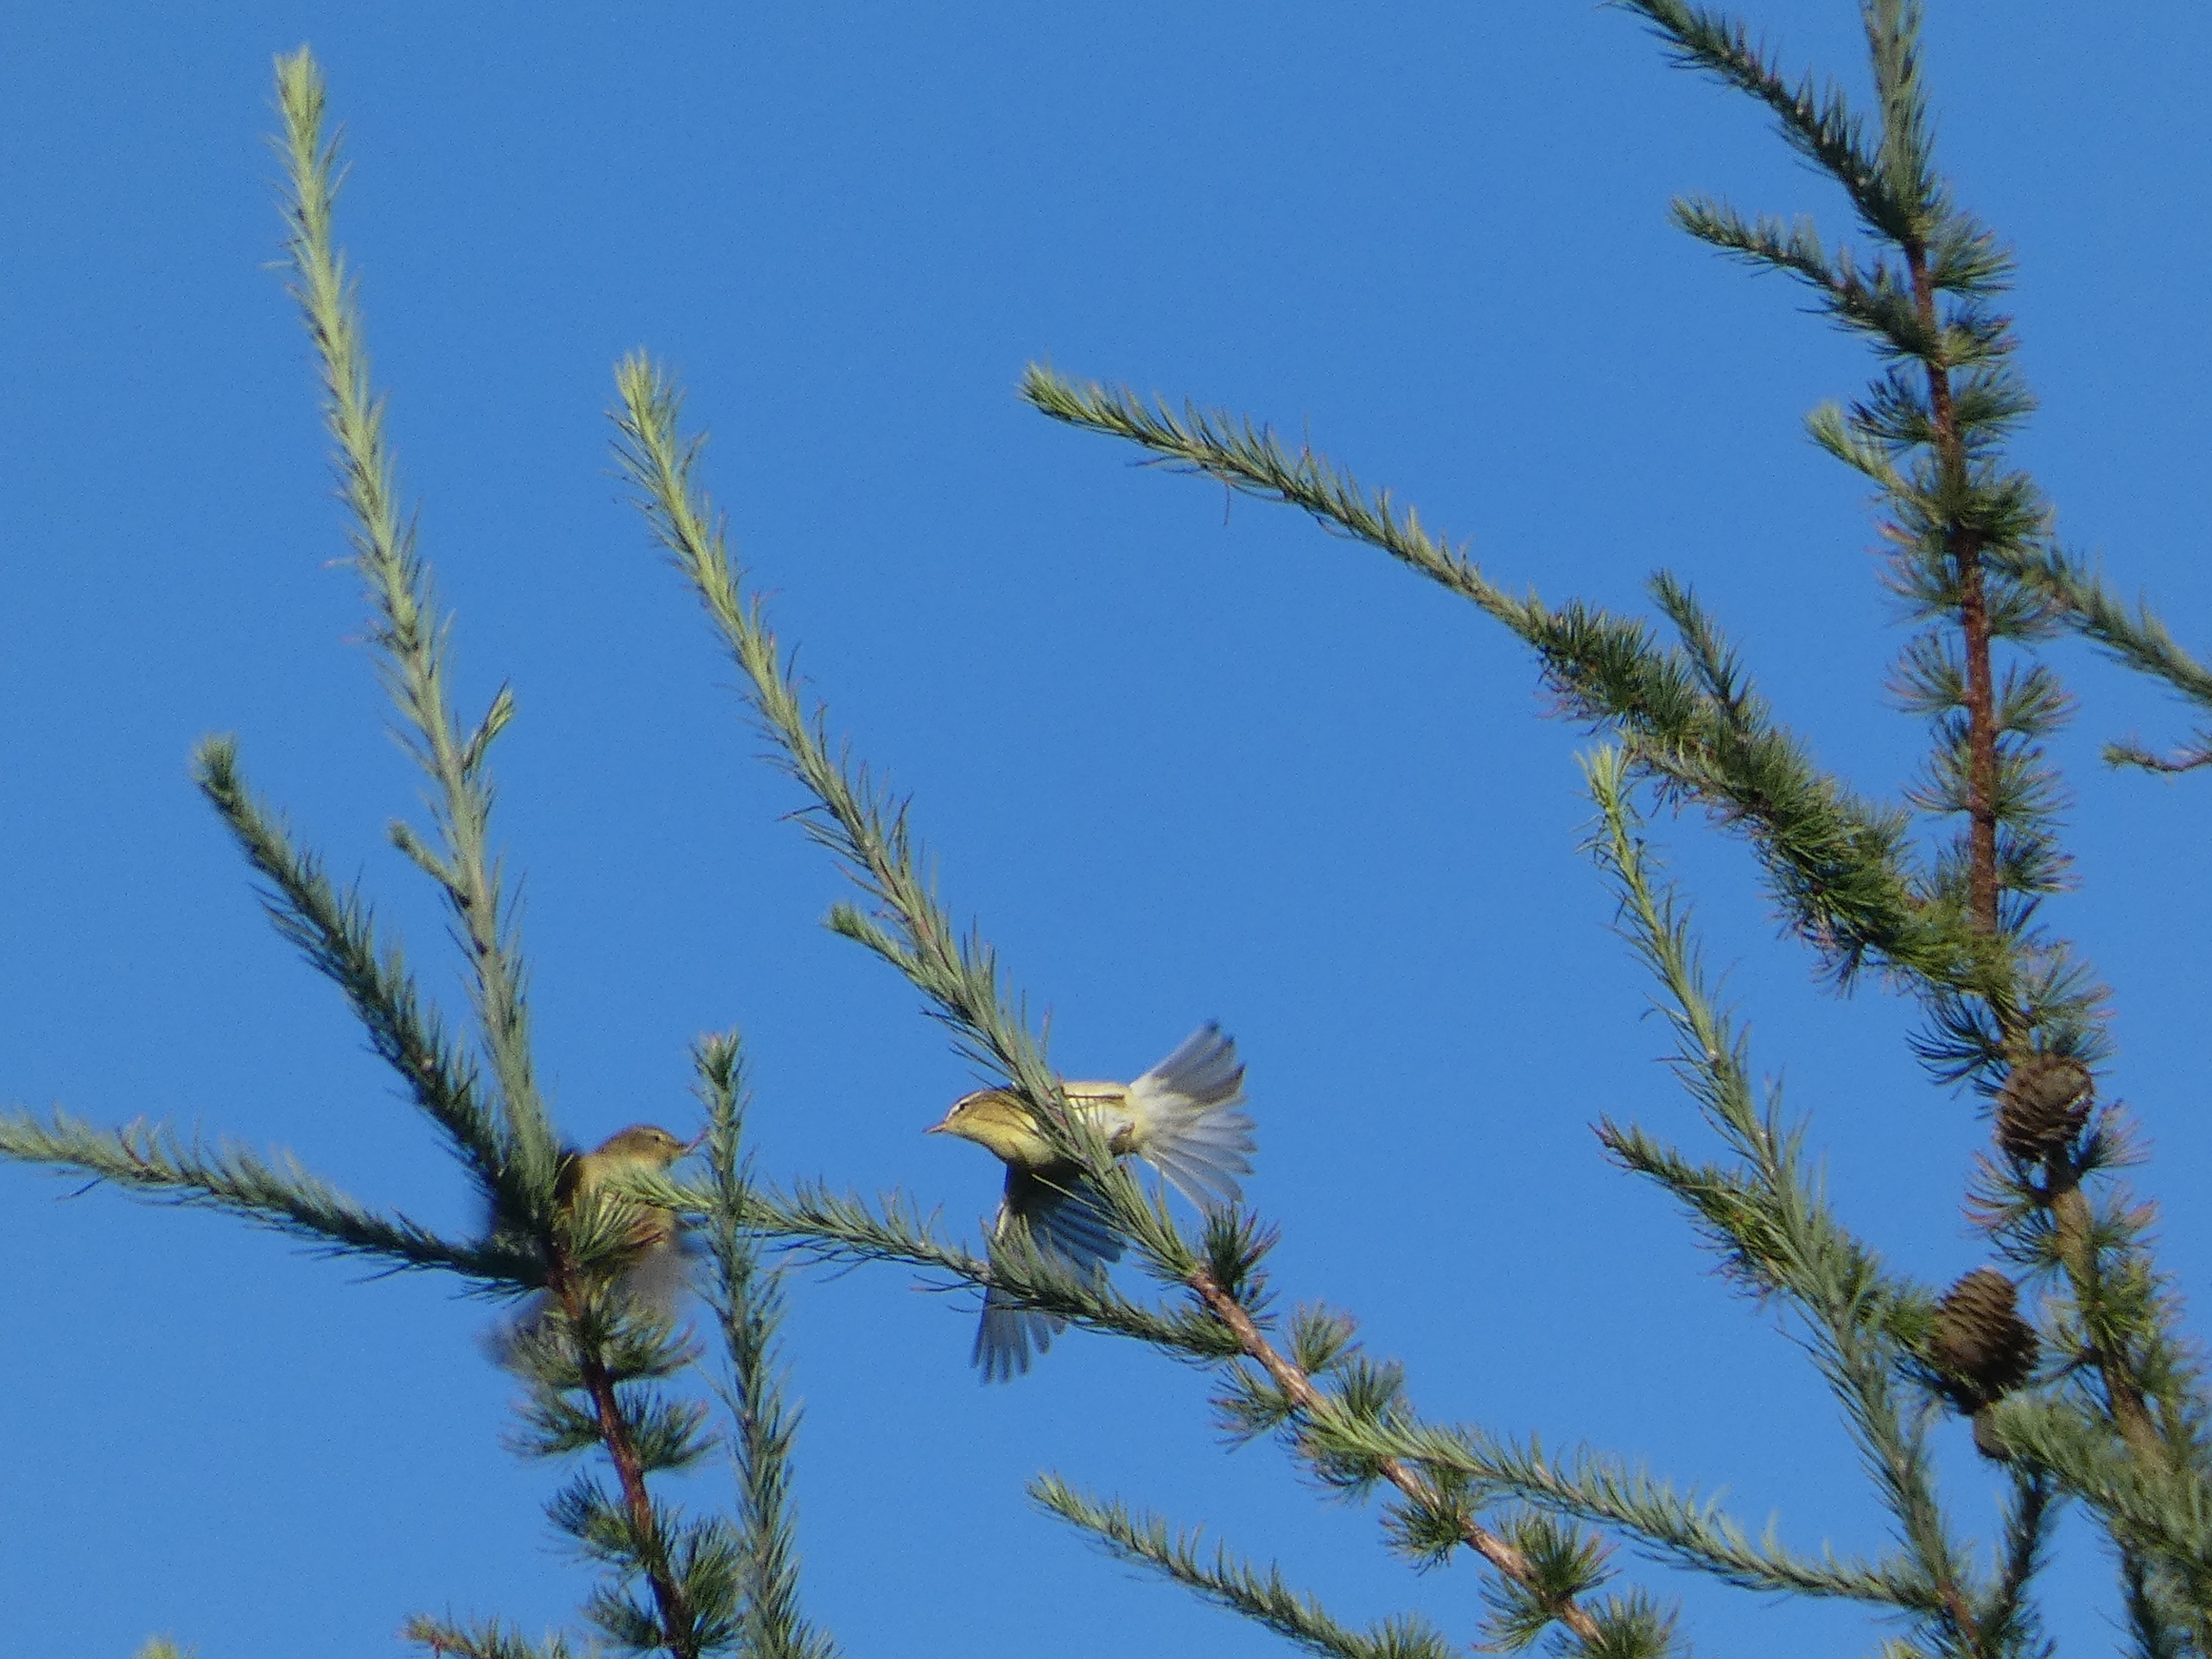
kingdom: Animalia
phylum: Chordata
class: Aves
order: Passeriformes
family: Phylloscopidae
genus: Phylloscopus
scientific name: Phylloscopus trochilus
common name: Løvsanger
